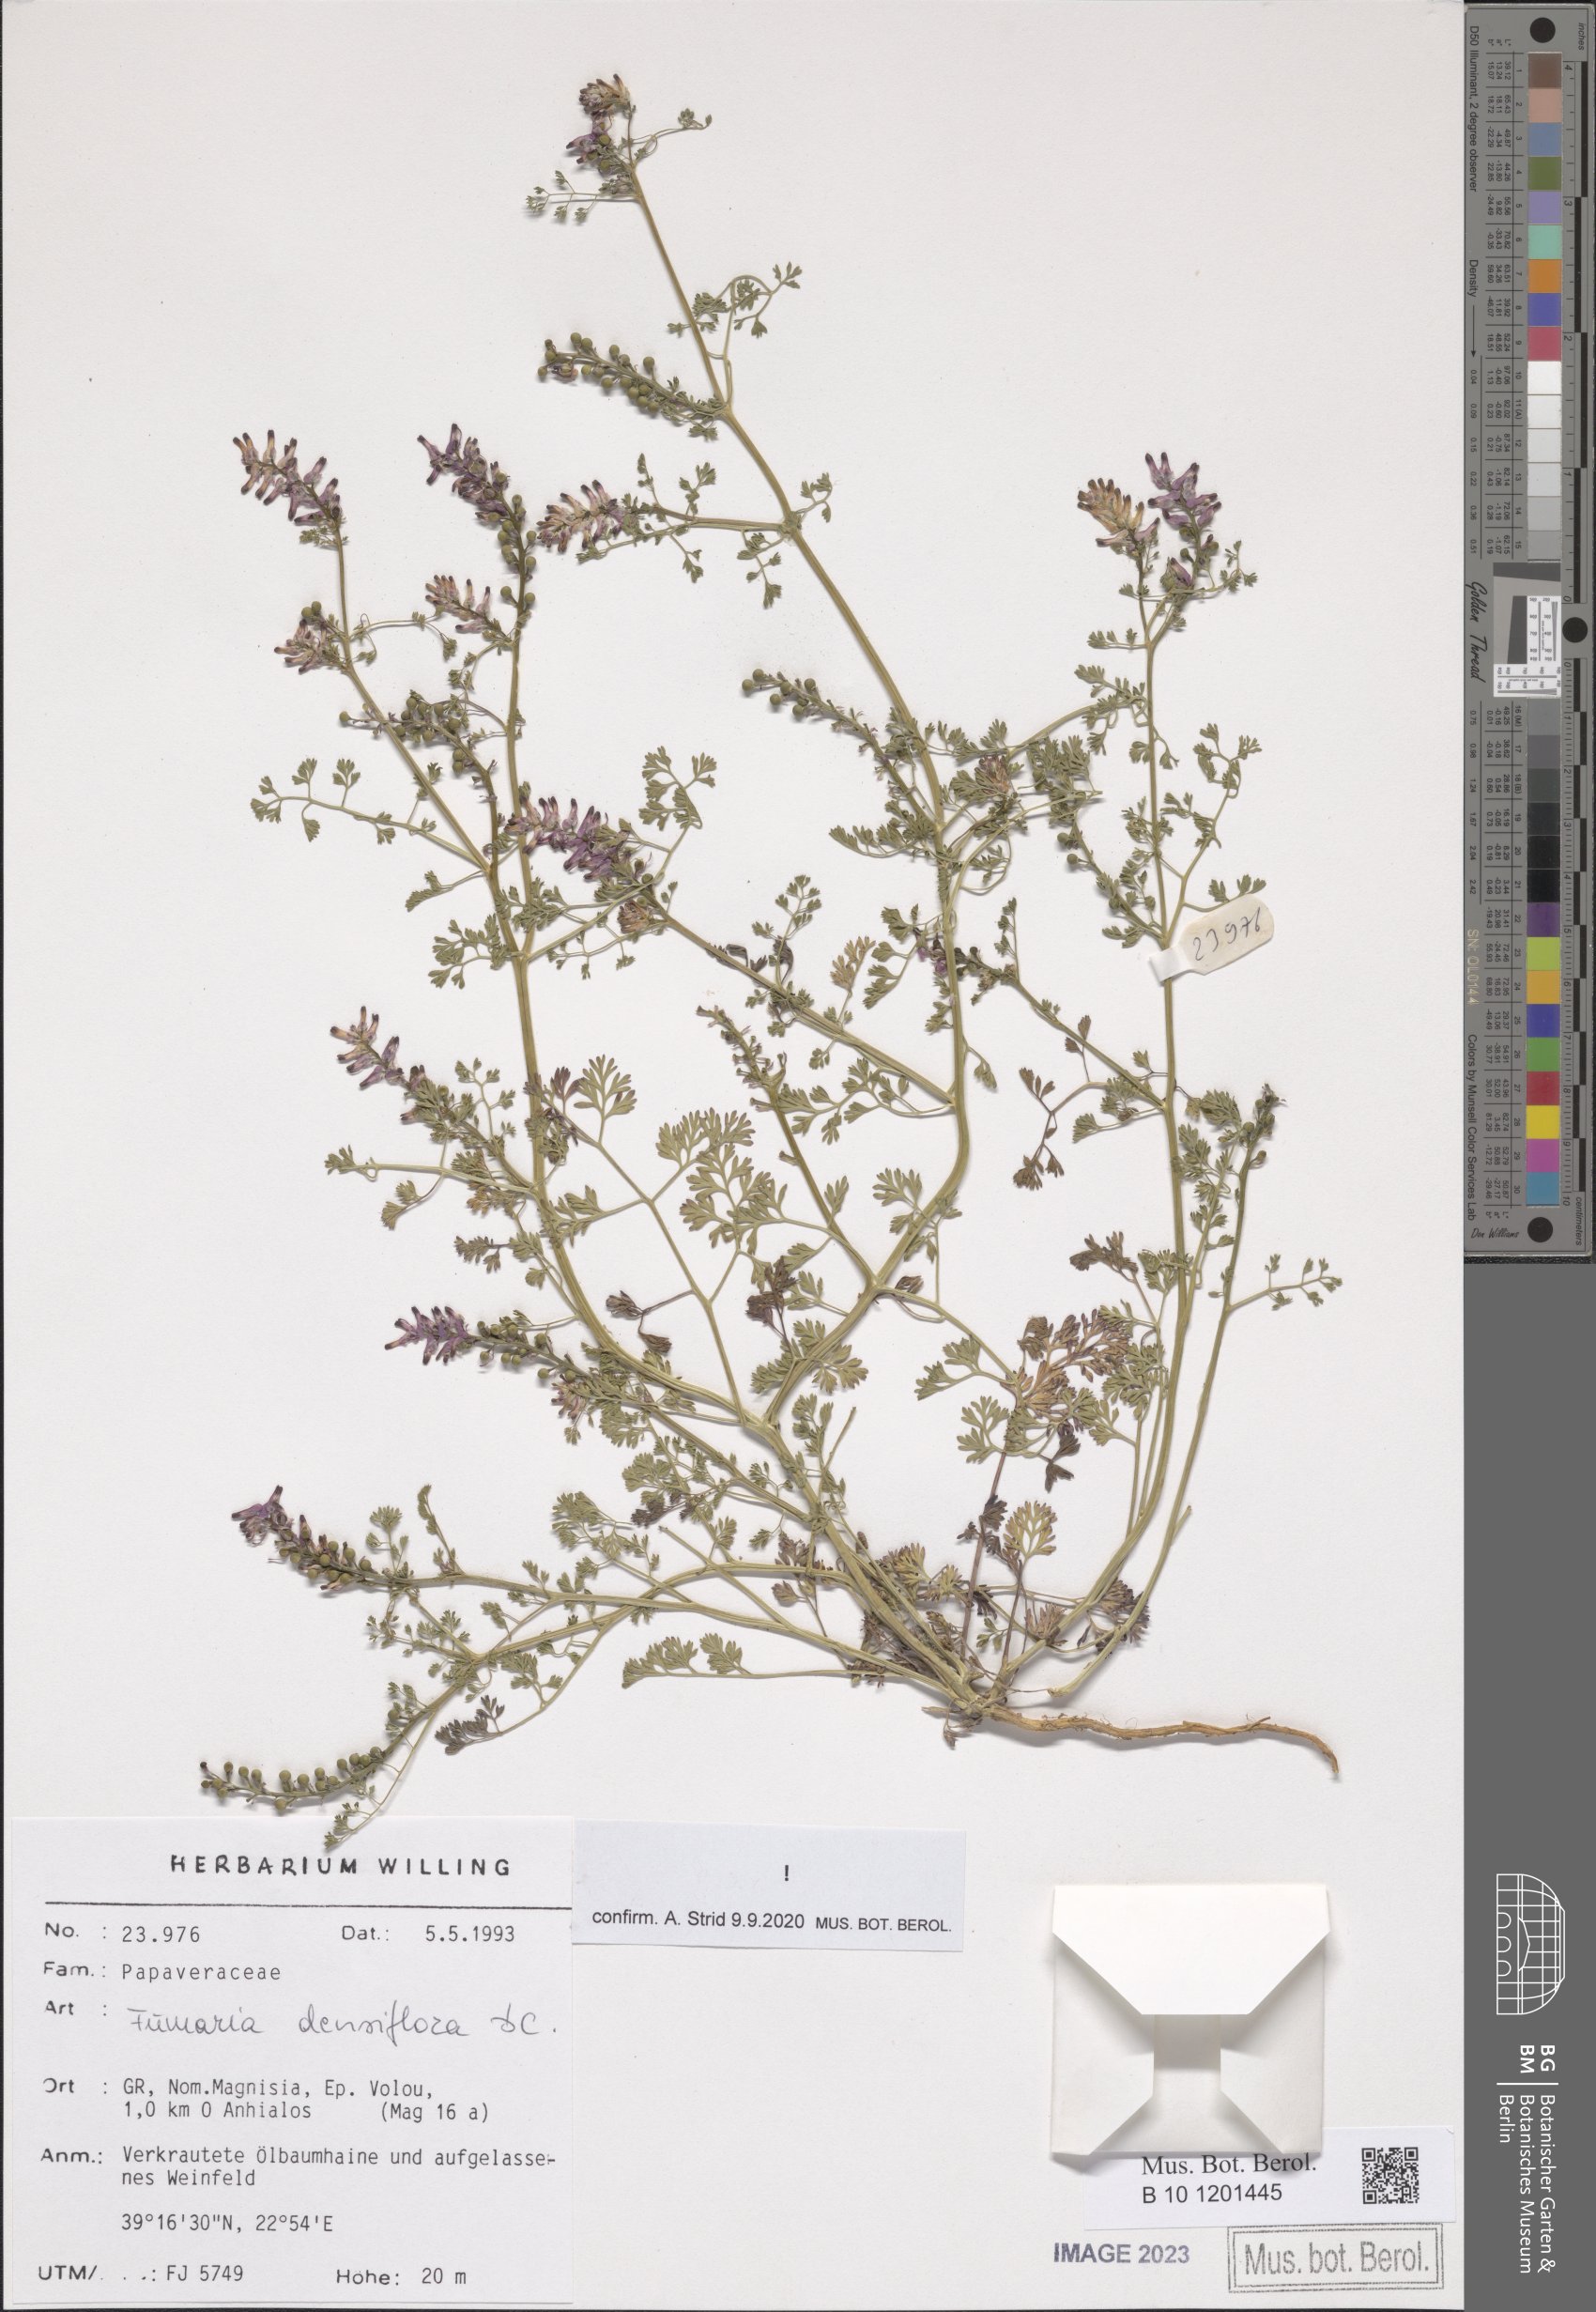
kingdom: Plantae
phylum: Tracheophyta
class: Magnoliopsida
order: Ranunculales
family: Papaveraceae
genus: Fumaria
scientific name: Fumaria densiflora
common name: Dense-flowered fumitory
